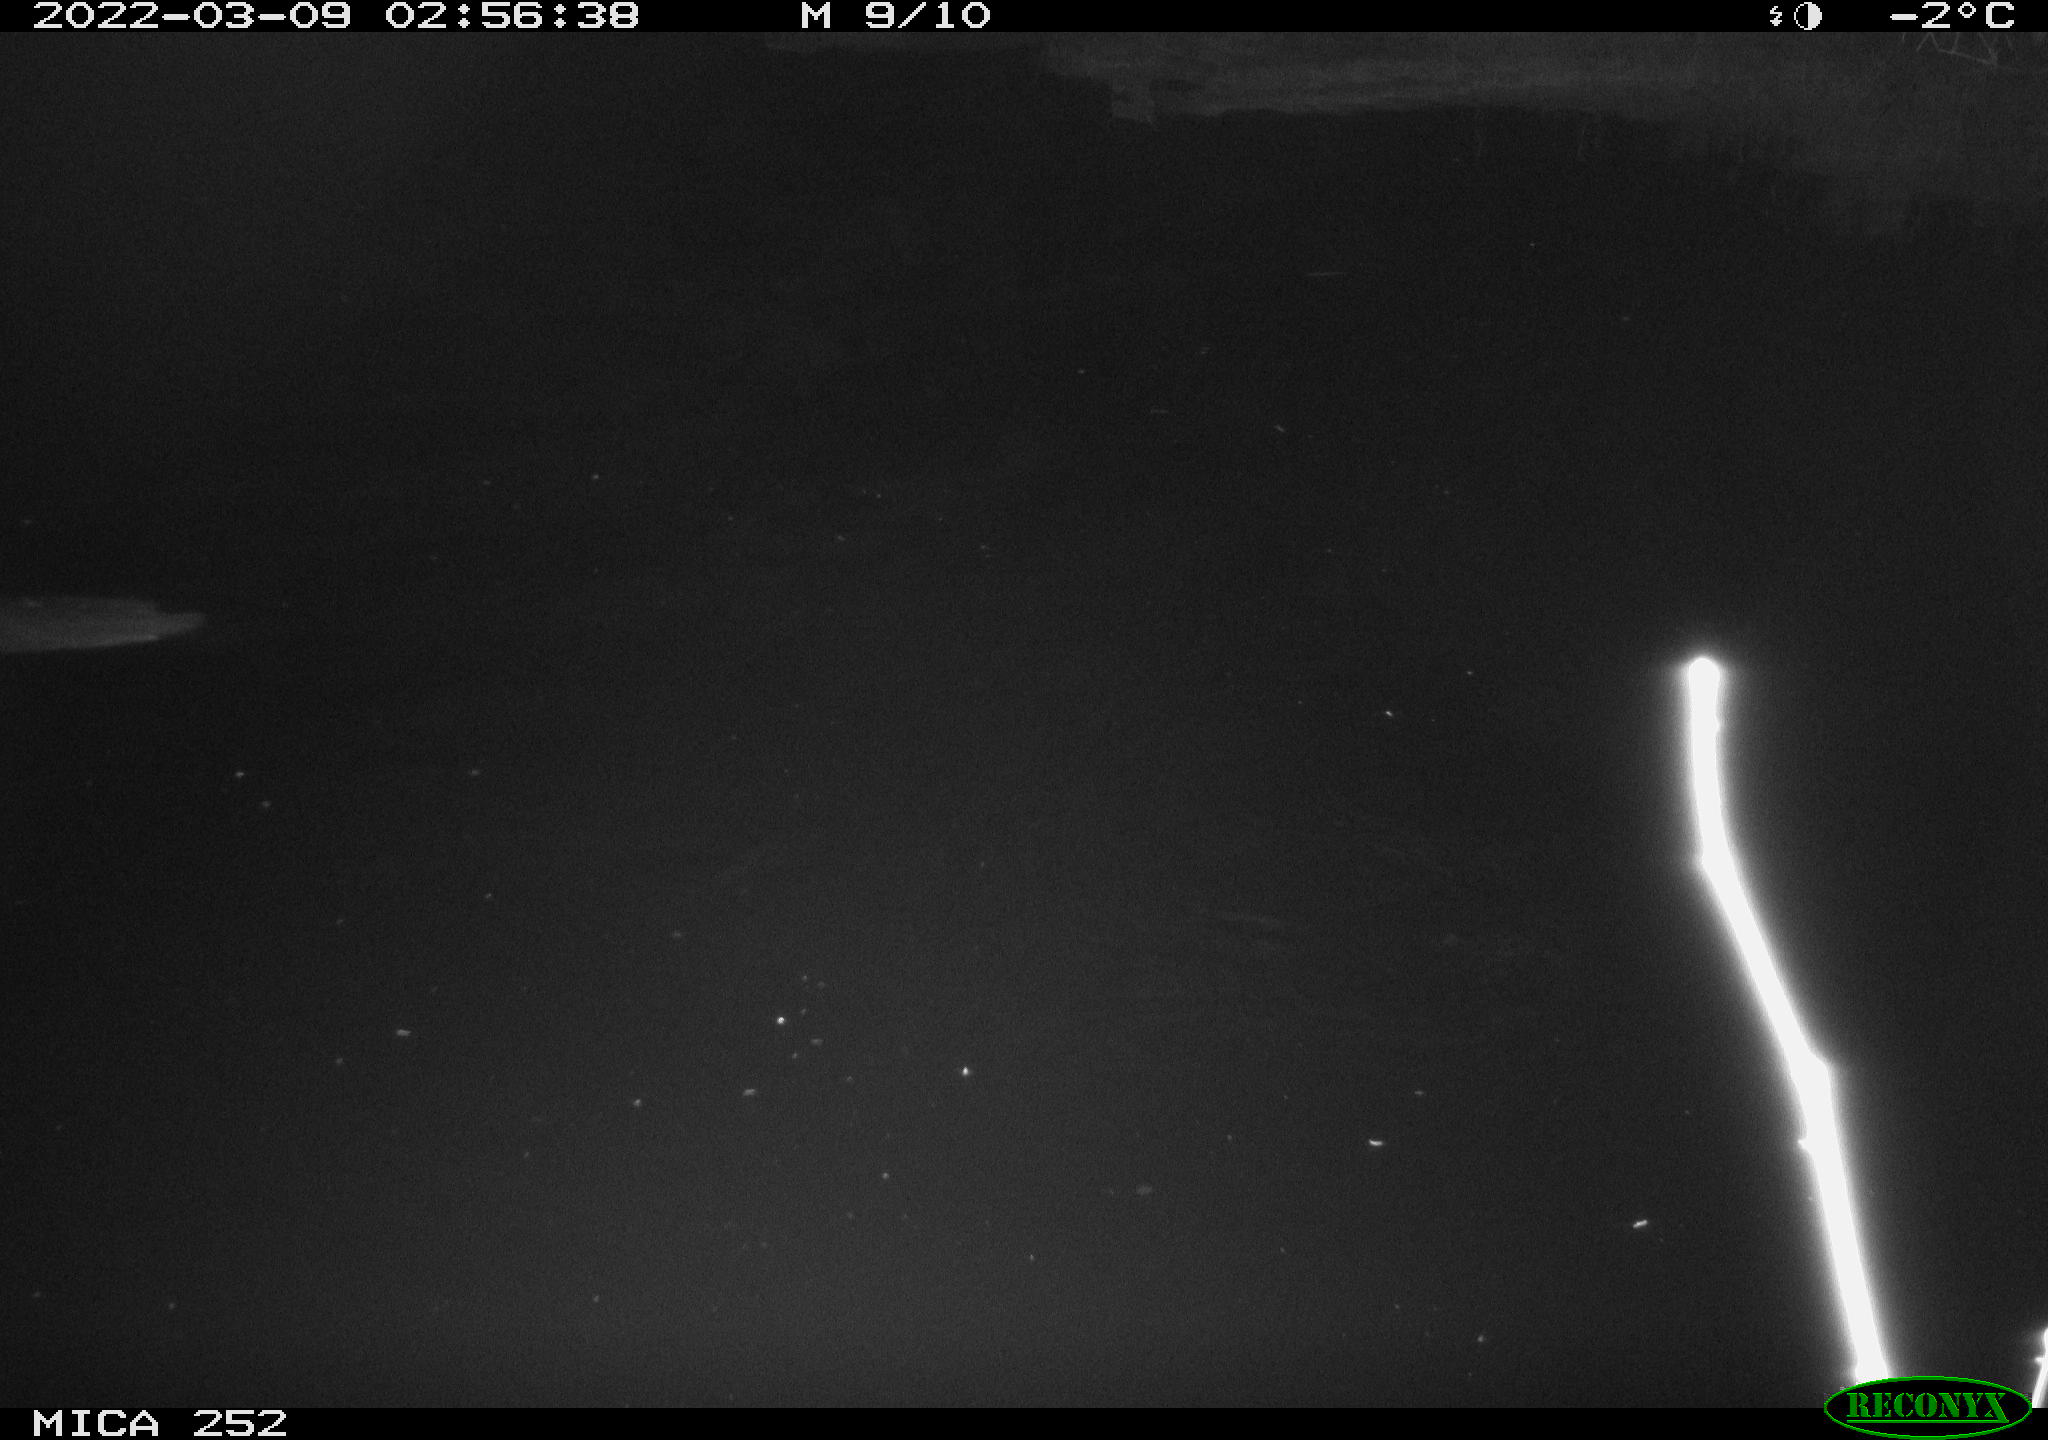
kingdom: Animalia
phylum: Chordata
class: Mammalia
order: Rodentia
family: Castoridae
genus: Castor
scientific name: Castor fiber
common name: Eurasian beaver
